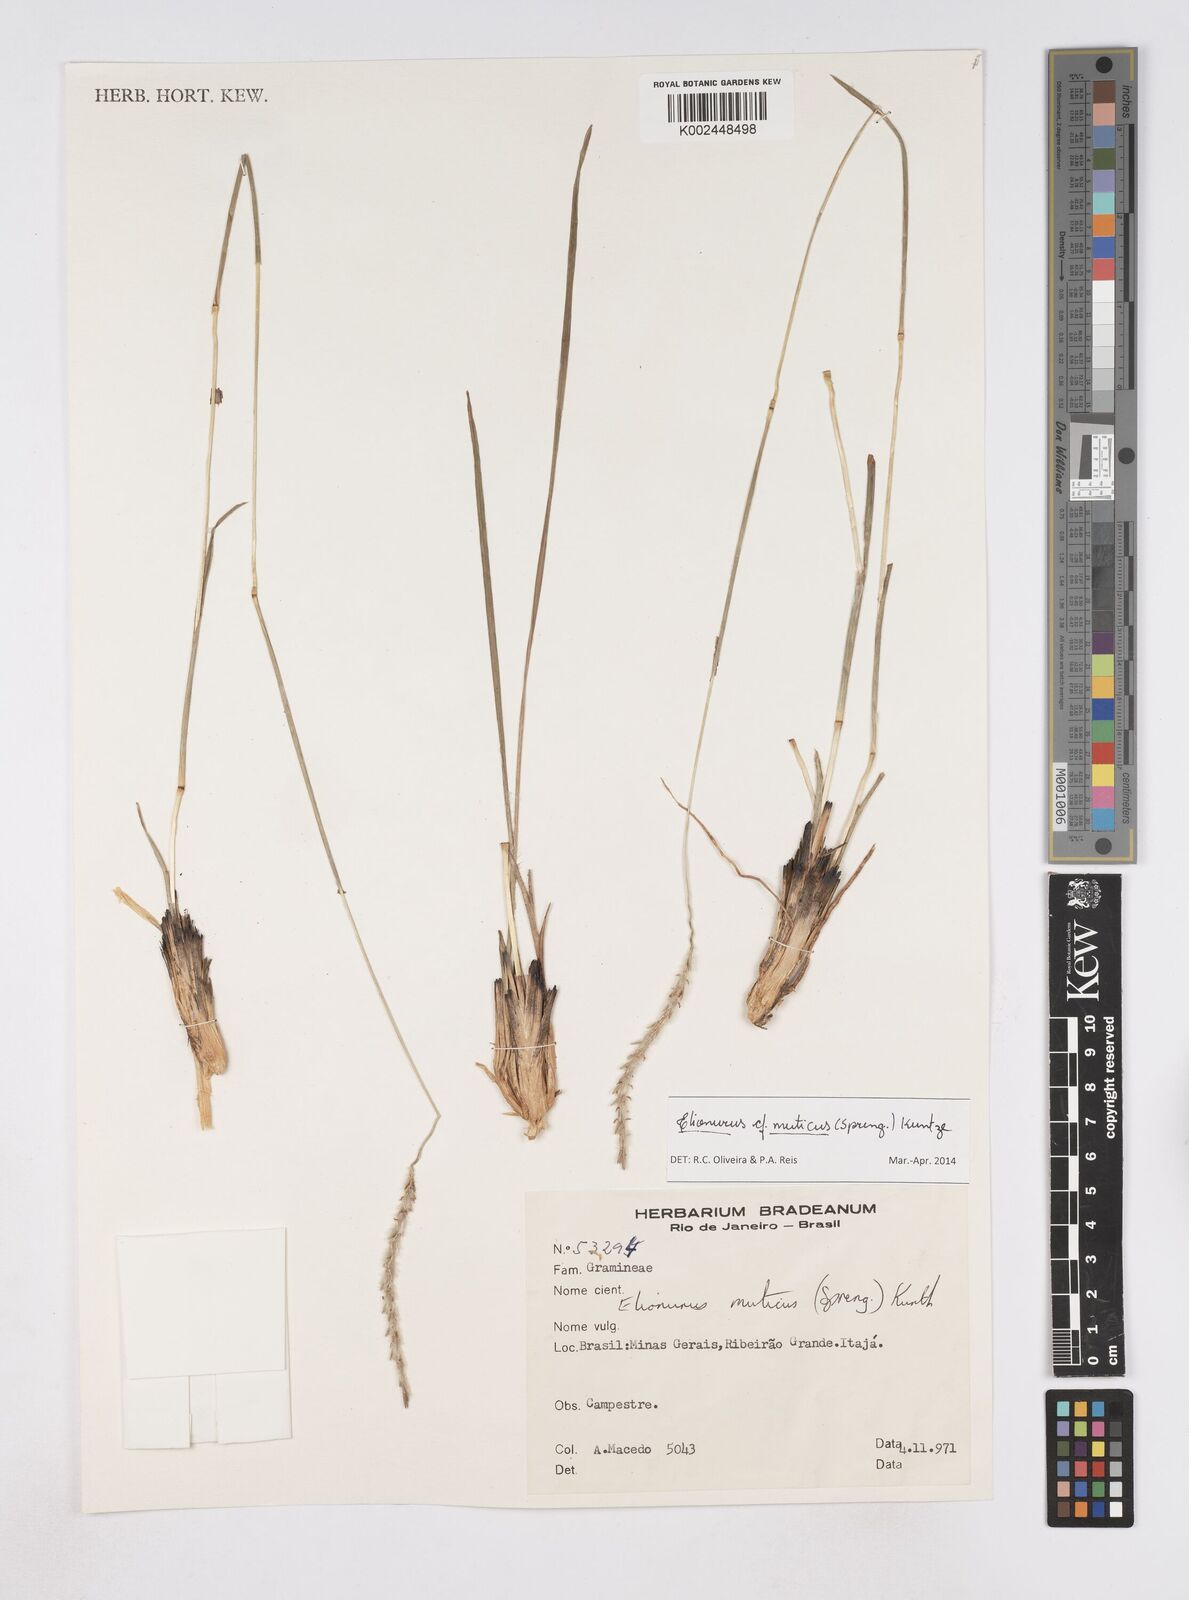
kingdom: Plantae
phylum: Tracheophyta
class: Liliopsida
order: Poales
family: Poaceae
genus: Elionurus
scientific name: Elionurus muticus
